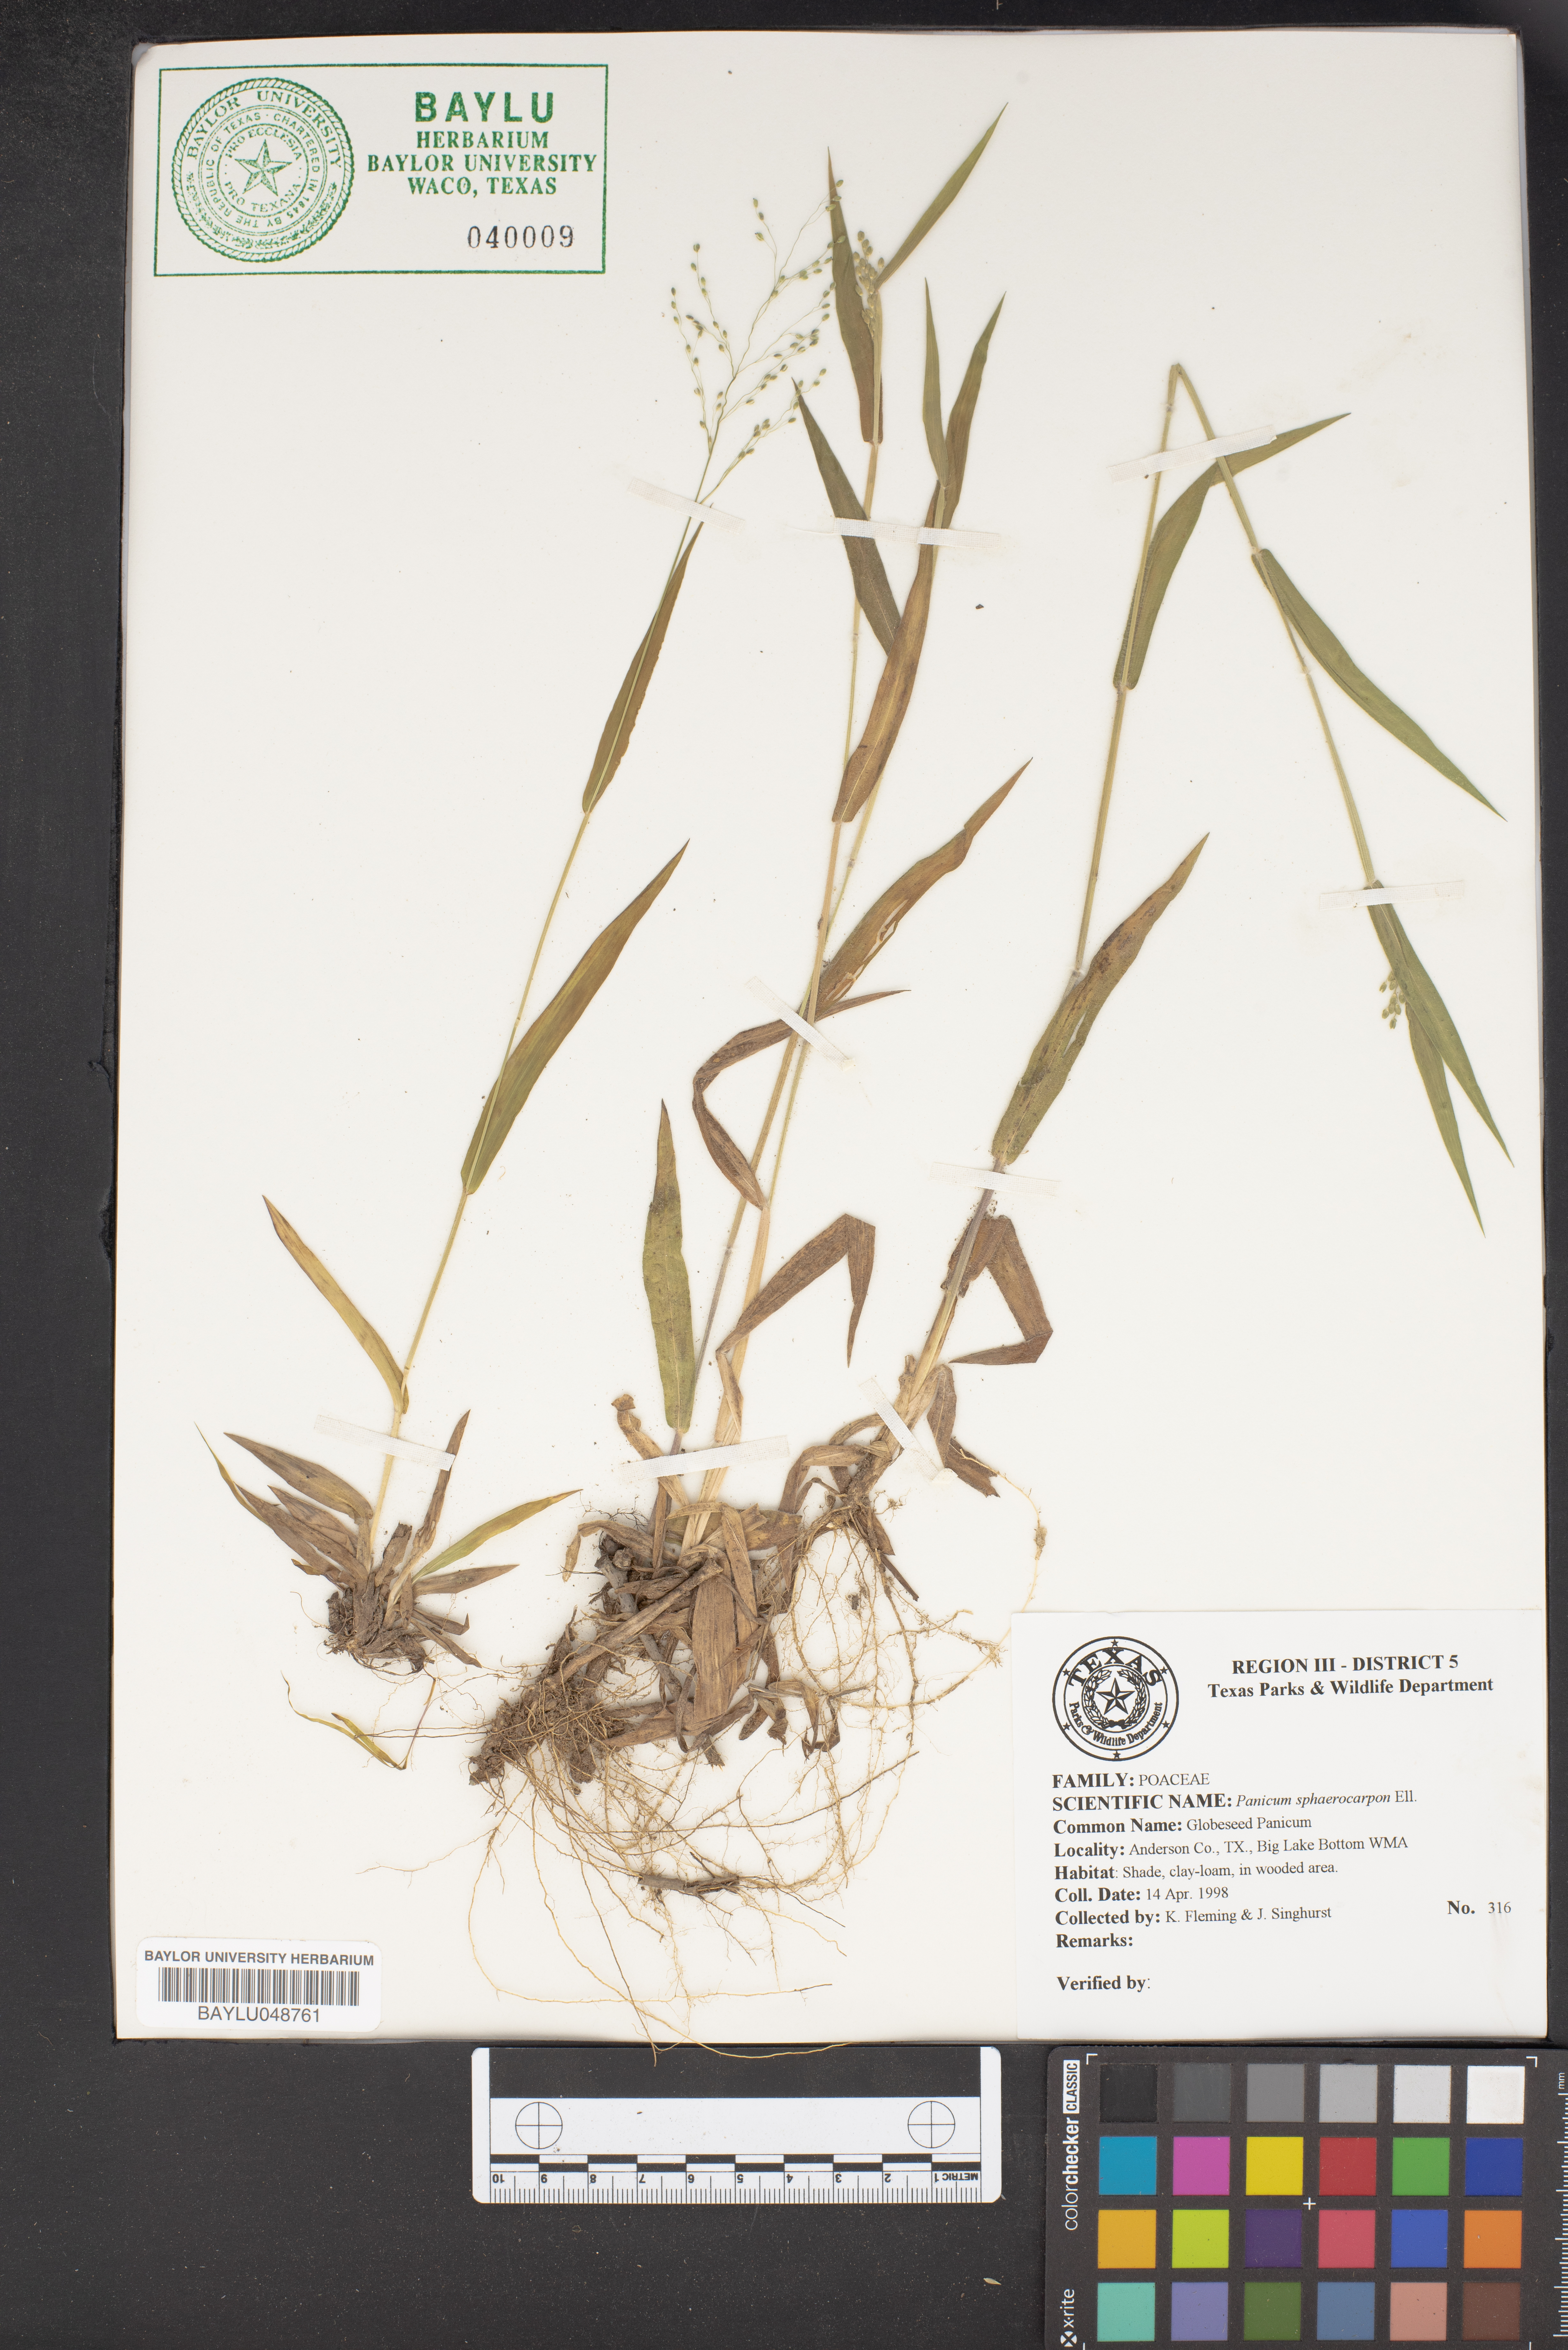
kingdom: Plantae
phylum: Tracheophyta
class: Liliopsida
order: Poales
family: Poaceae
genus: Dichanthelium
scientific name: Dichanthelium sphaerocarpon
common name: Round-fruited panicgrass
